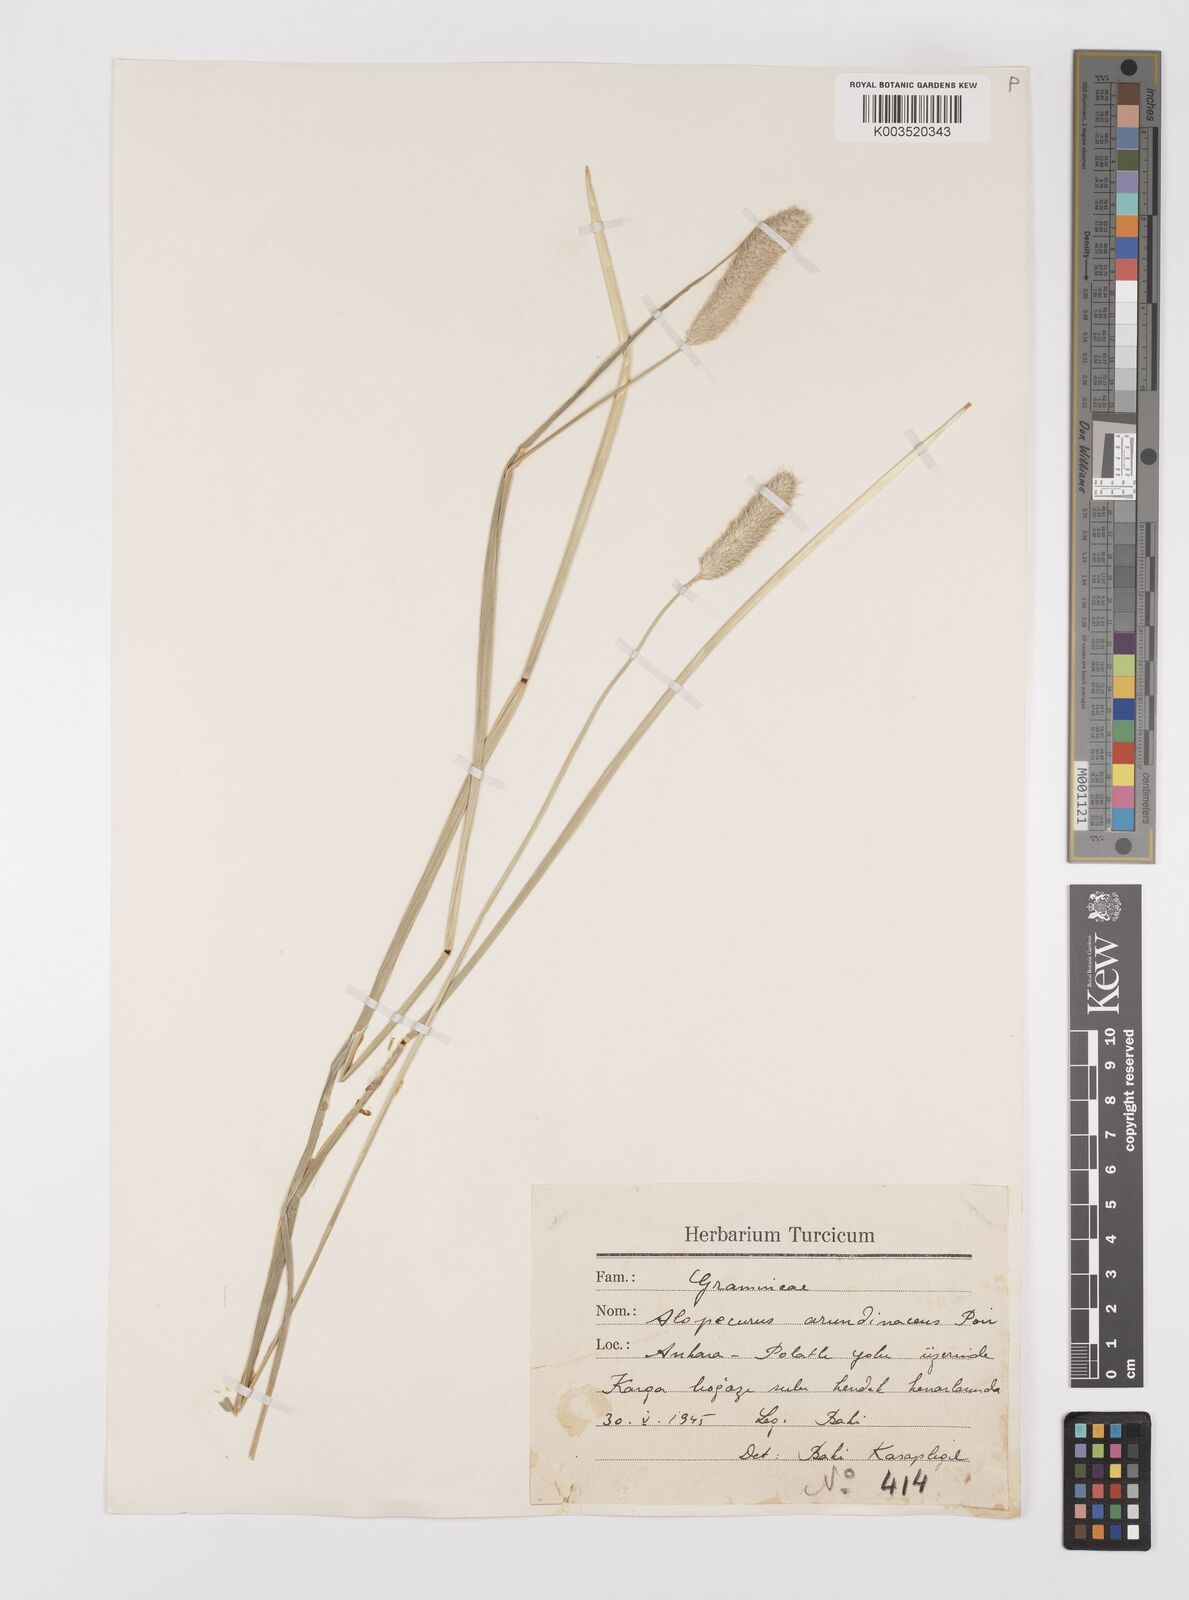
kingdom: Plantae
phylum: Tracheophyta
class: Liliopsida
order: Poales
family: Poaceae
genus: Alopecurus
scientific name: Alopecurus arundinaceus
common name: Creeping meadow foxtail
